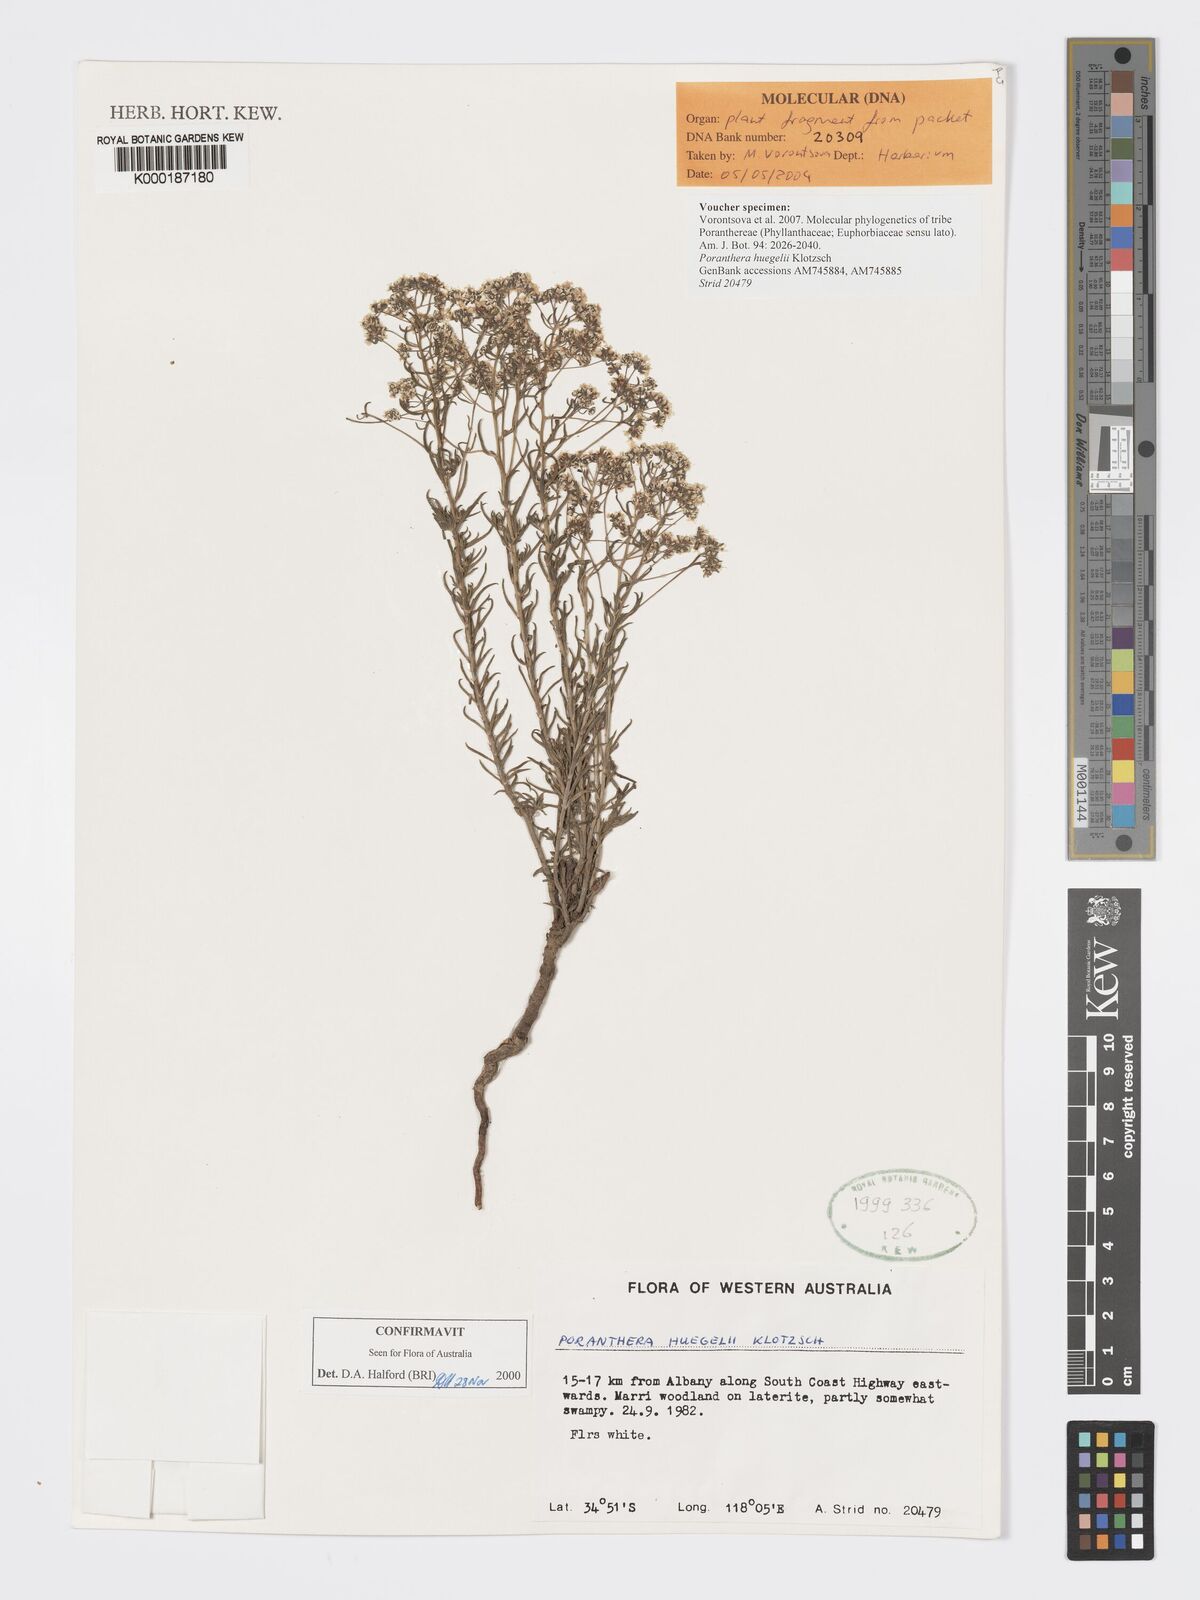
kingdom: Plantae
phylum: Tracheophyta
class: Magnoliopsida
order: Malpighiales
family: Phyllanthaceae
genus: Poranthera
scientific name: Poranthera huegelii
